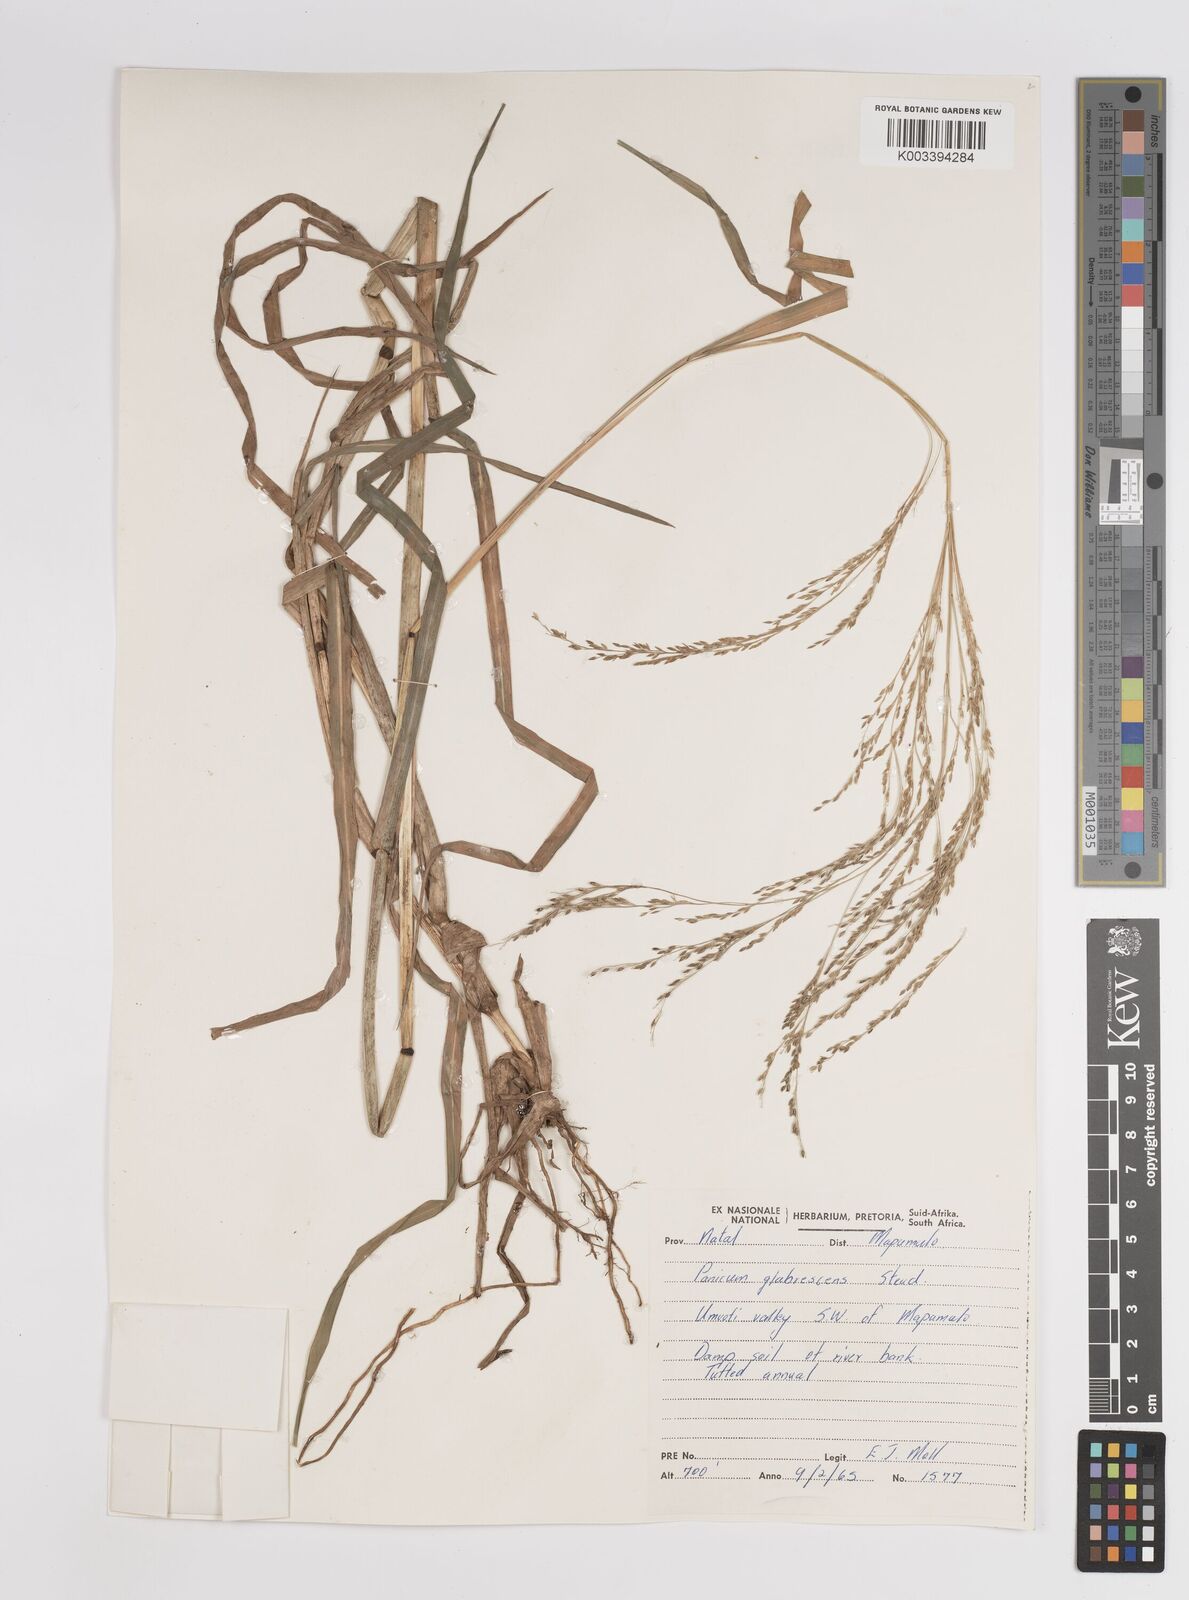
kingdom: Plantae
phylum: Tracheophyta
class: Liliopsida
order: Poales
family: Poaceae
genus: Panicum
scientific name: Panicum subalbidum
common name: Elbow buffalo grass
